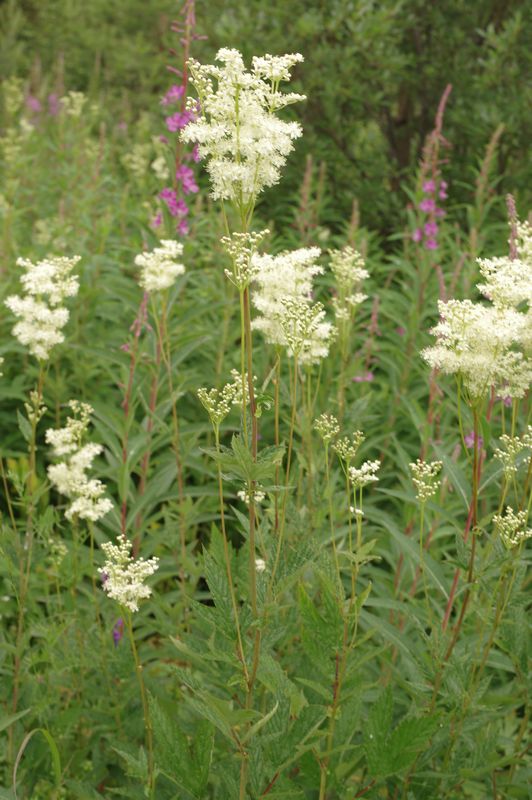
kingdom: Plantae
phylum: Tracheophyta
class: Magnoliopsida
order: Rosales
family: Rosaceae
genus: Filipendula
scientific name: Filipendula ulmaria
